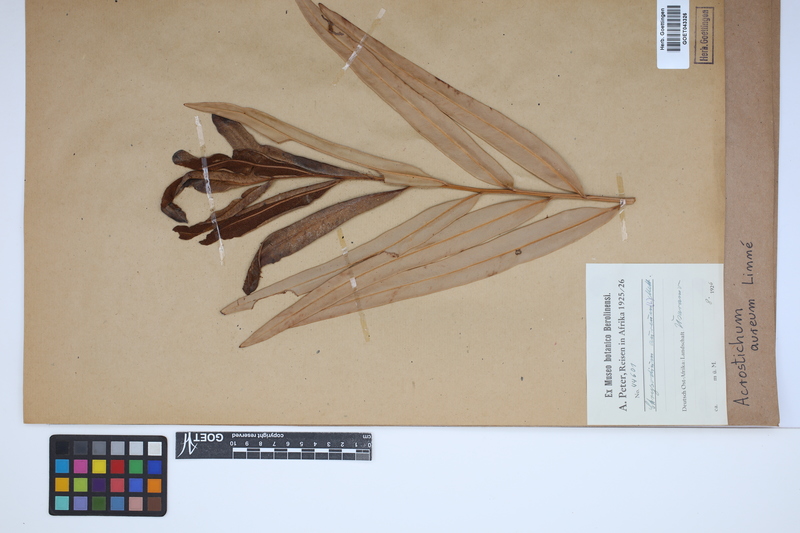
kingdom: Plantae
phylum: Tracheophyta
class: Polypodiopsida
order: Polypodiales
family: Pteridaceae
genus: Acrostichum
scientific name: Acrostichum aureum
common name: Leather fern
